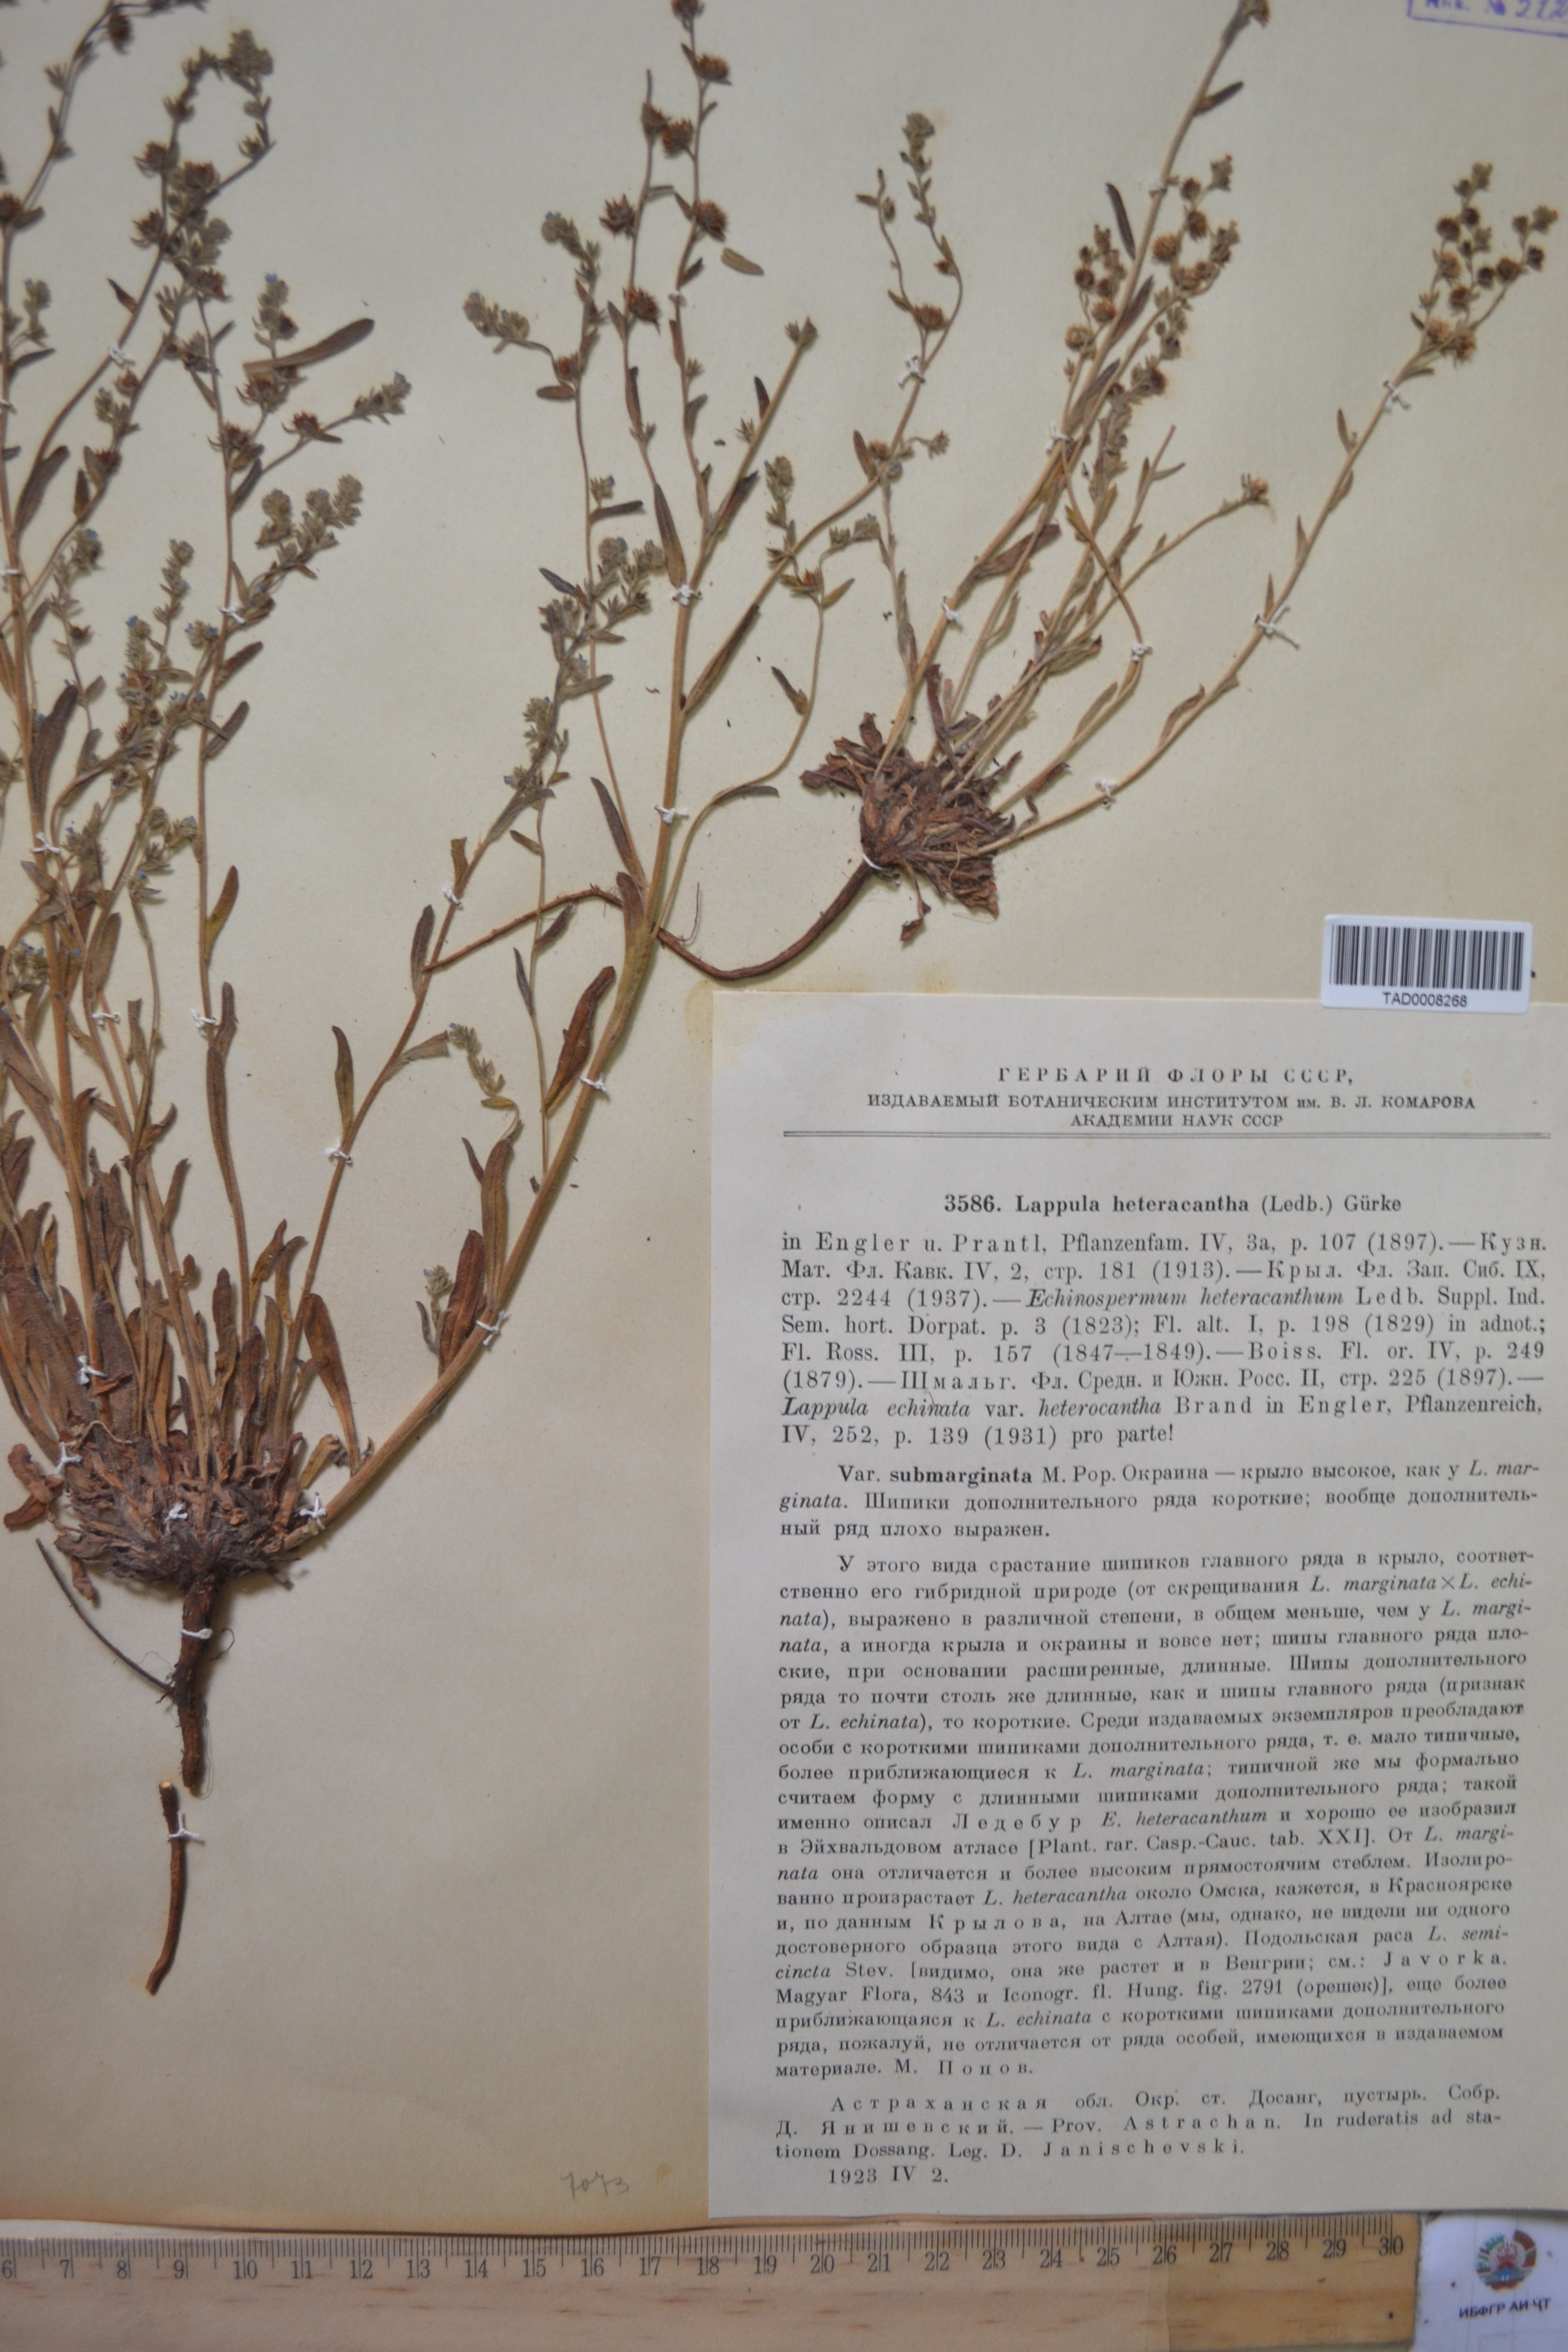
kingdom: Plantae
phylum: Tracheophyta
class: Magnoliopsida
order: Boraginales
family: Boraginaceae
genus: Lappula
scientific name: Lappula heteracantha
